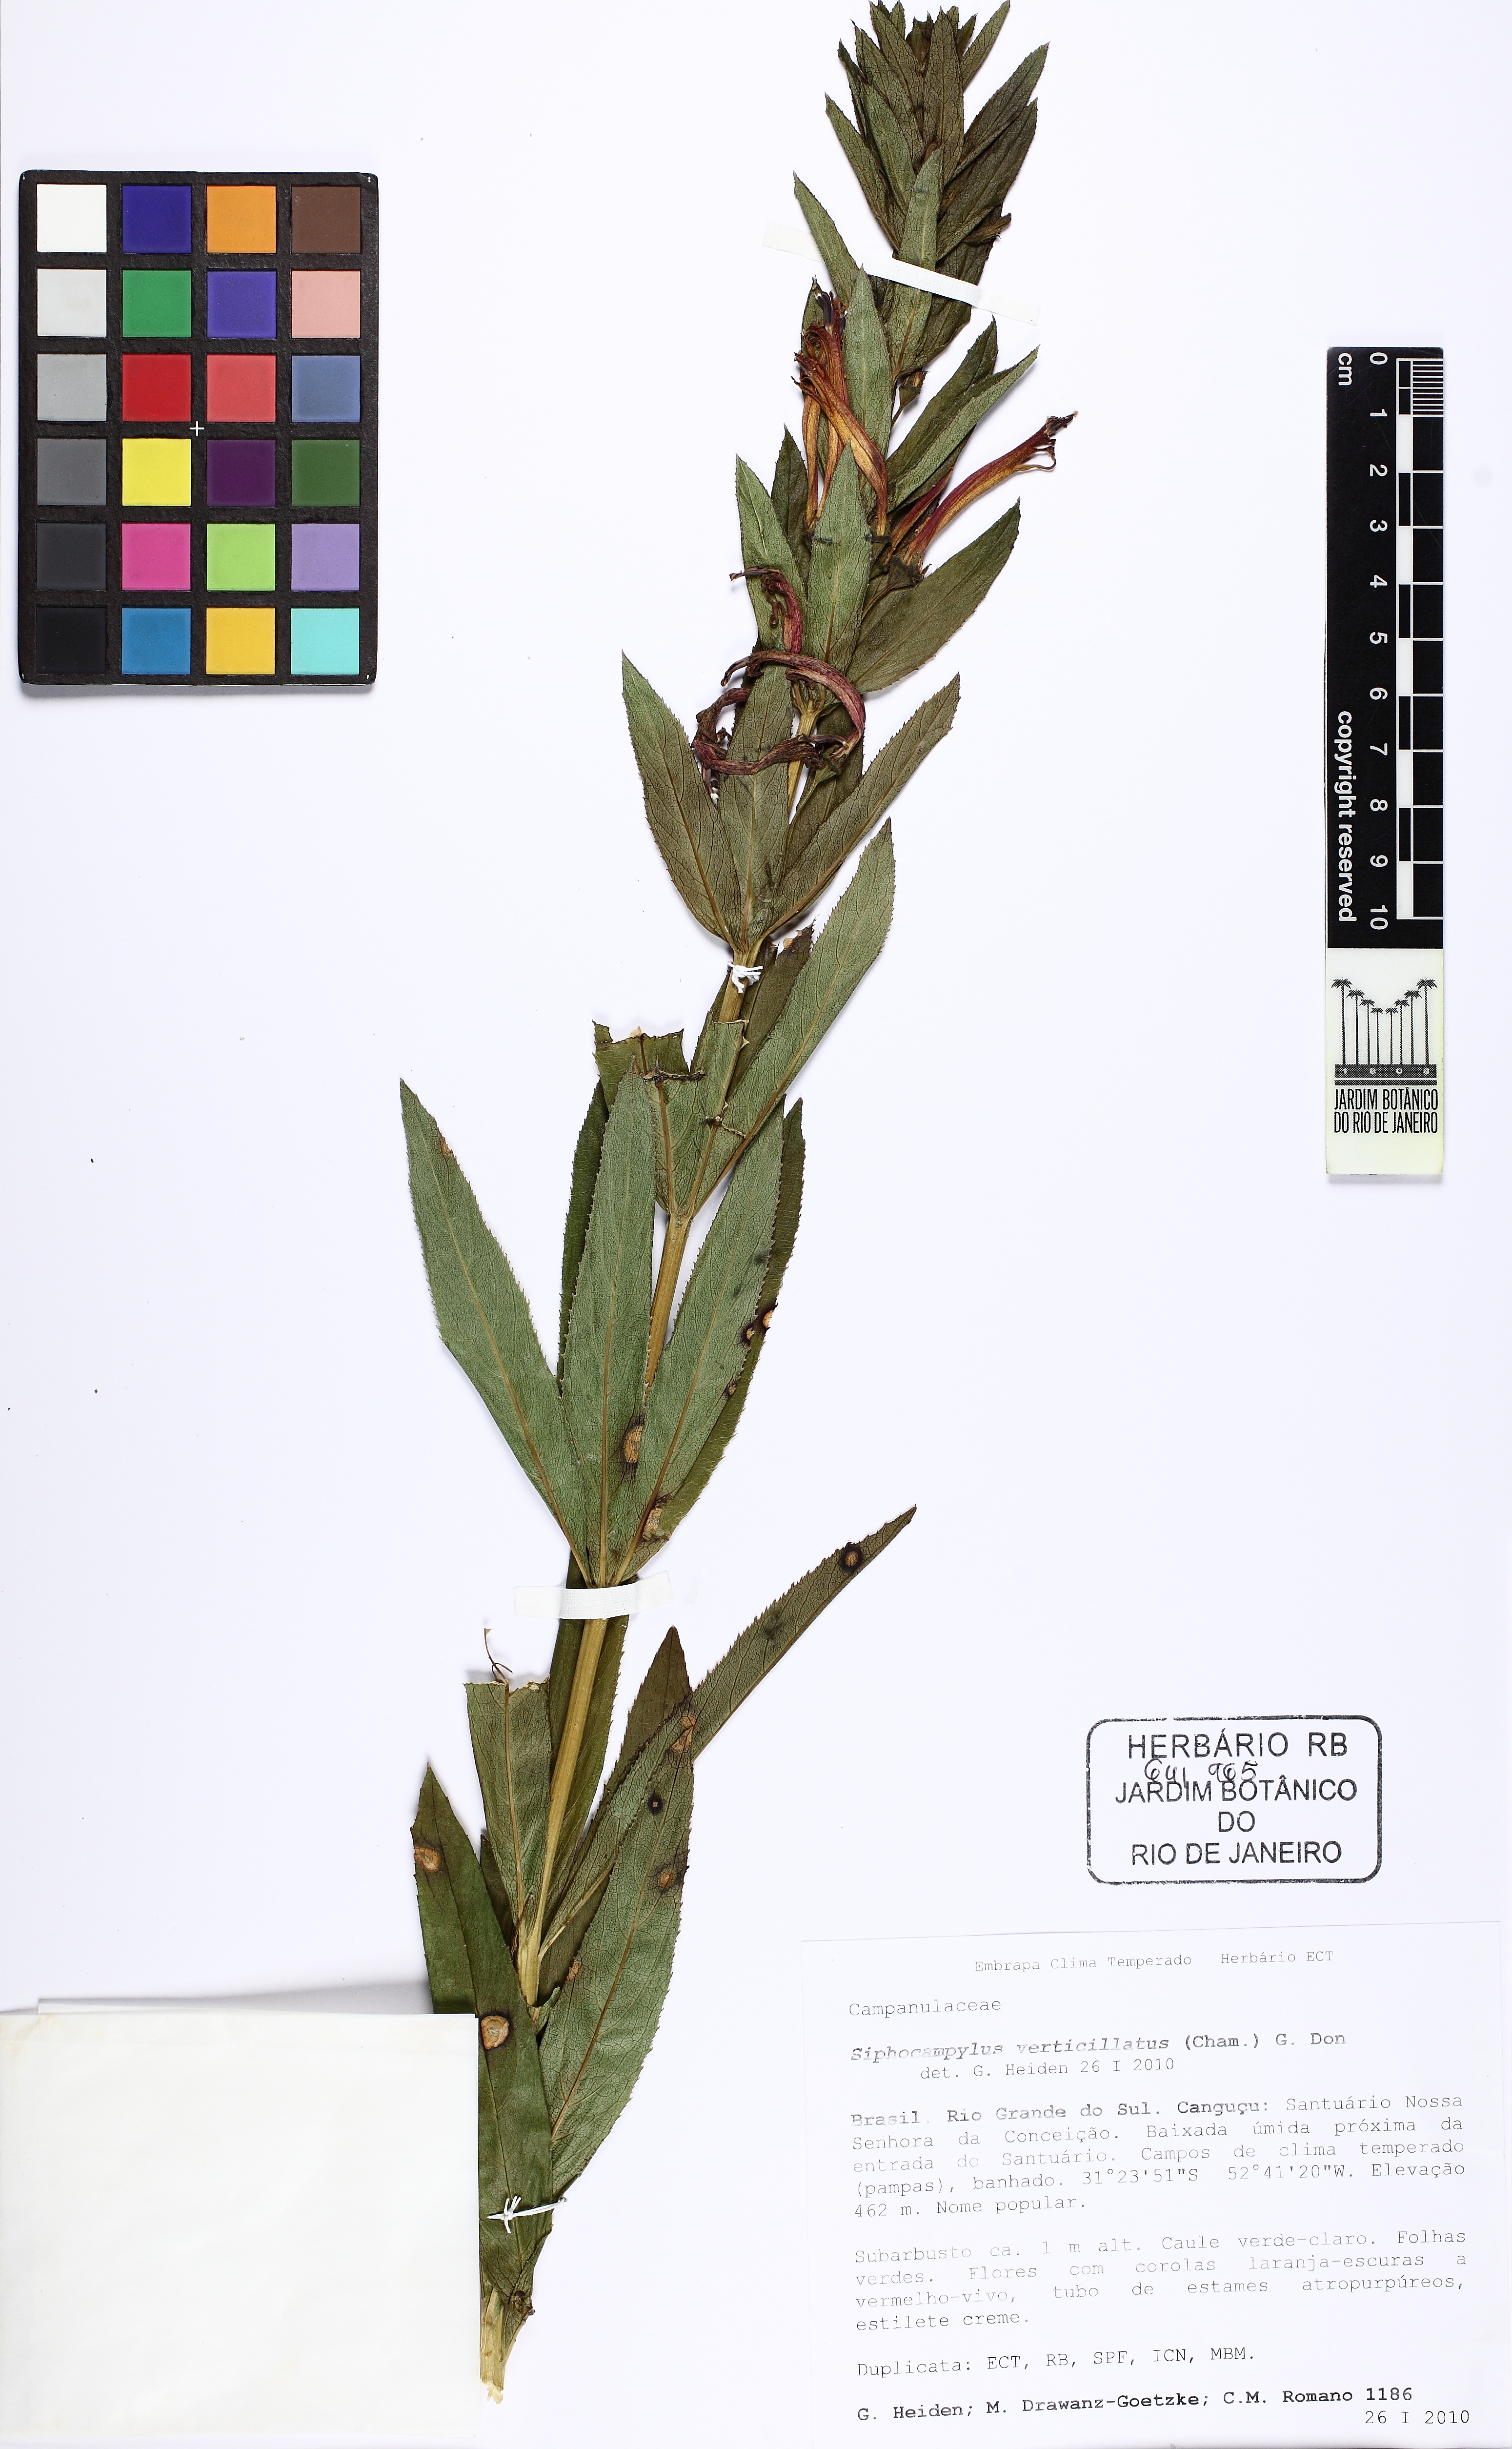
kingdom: Plantae
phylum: Tracheophyta
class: Magnoliopsida
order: Asterales
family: Campanulaceae
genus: Siphocampylus
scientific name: Siphocampylus verticillatus
